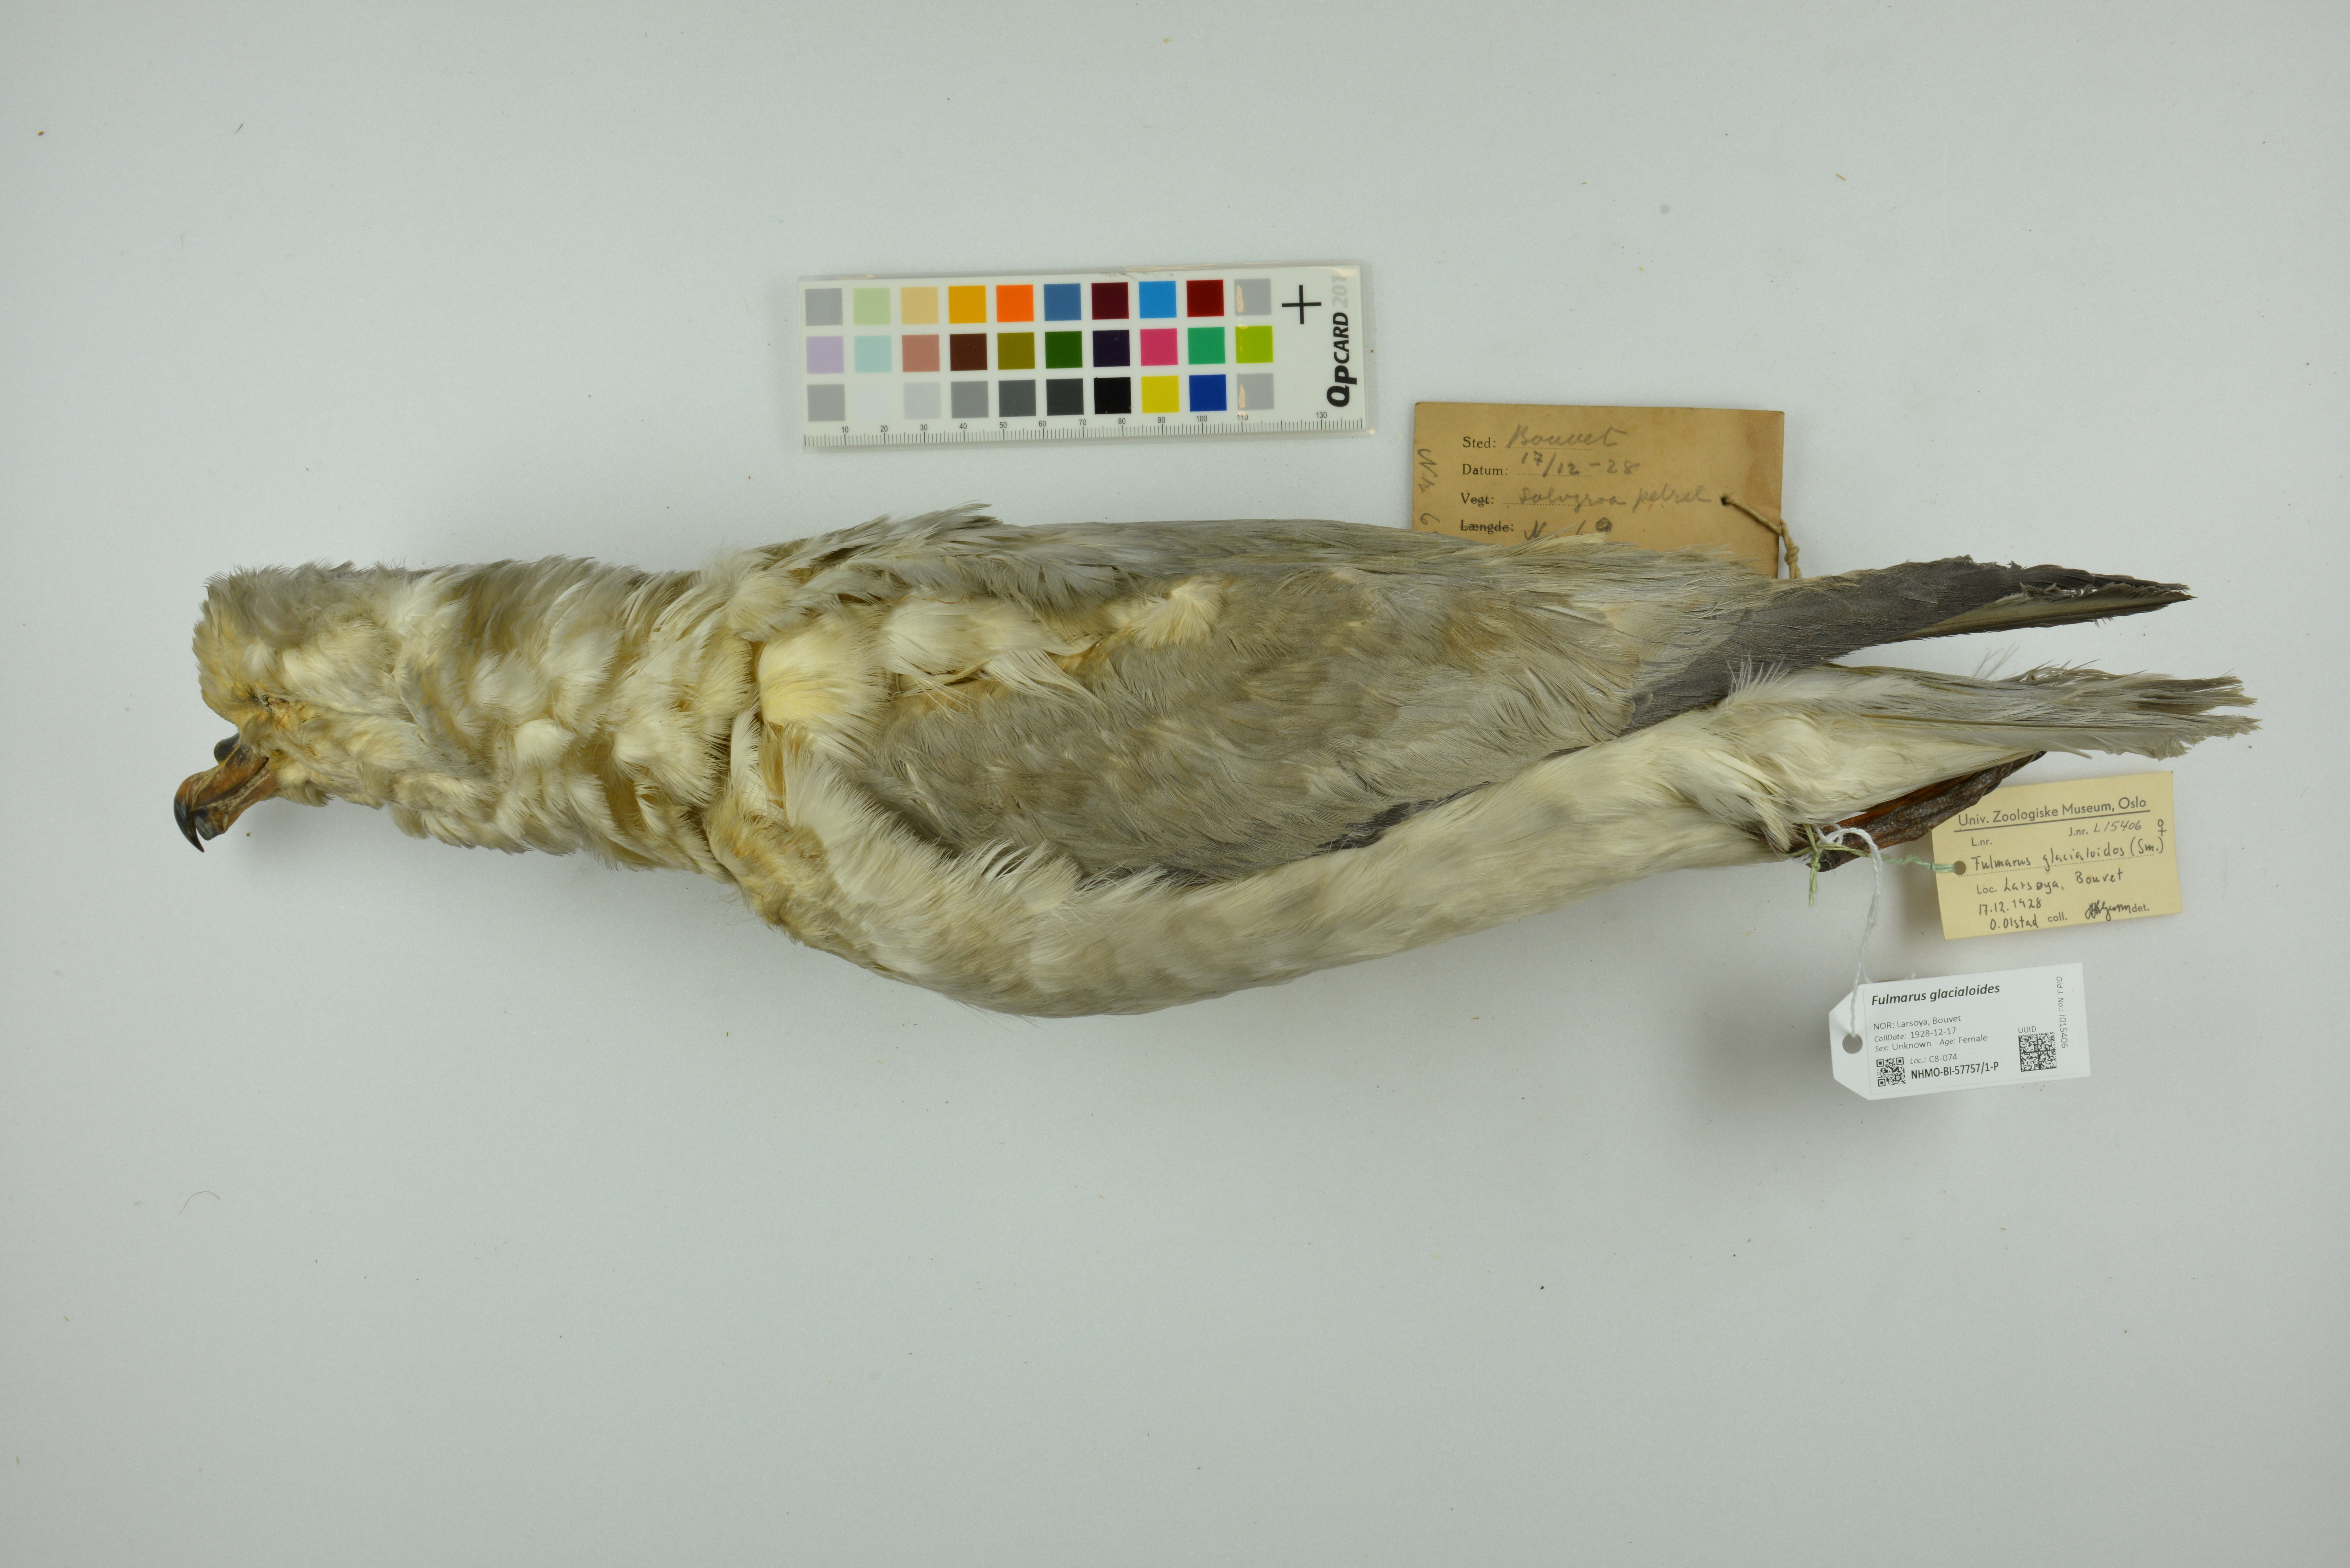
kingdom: Animalia
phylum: Chordata
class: Aves
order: Procellariiformes
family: Procellariidae
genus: Fulmarus
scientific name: Fulmarus glacialoides
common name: Southern fulmar
